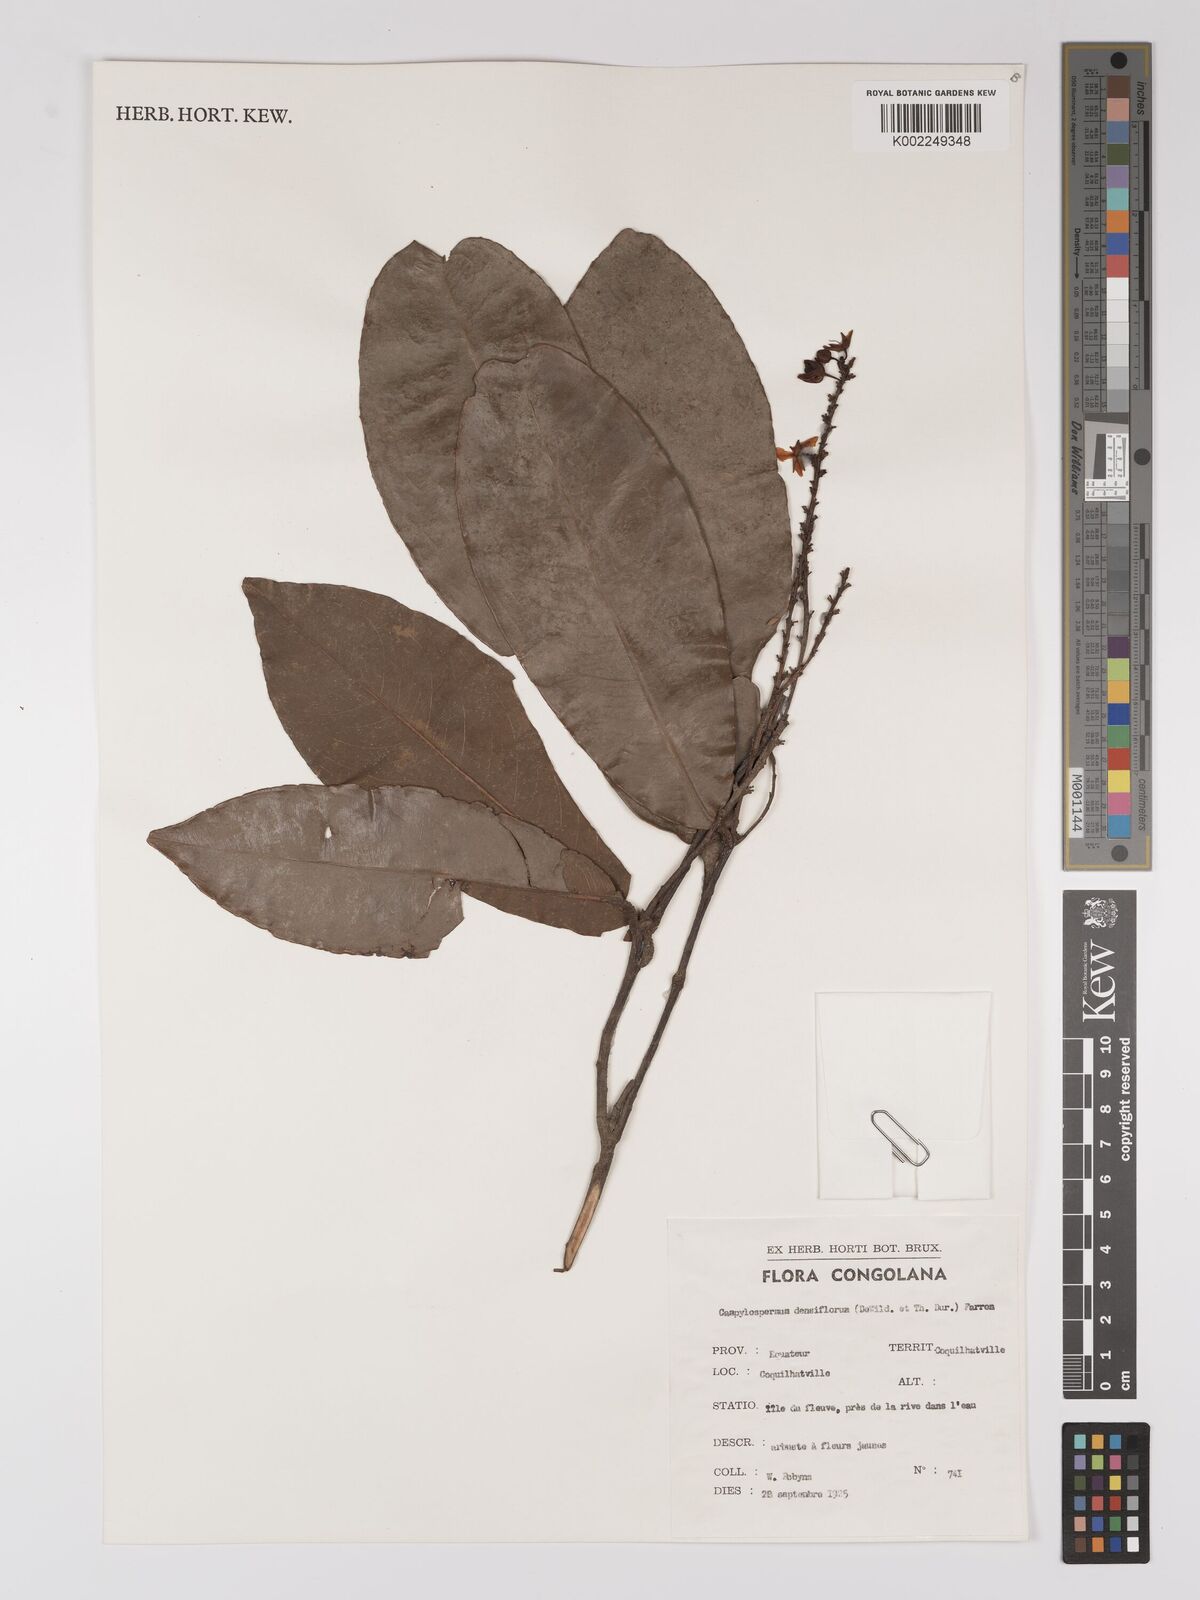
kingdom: Plantae
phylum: Tracheophyta
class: Magnoliopsida
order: Malpighiales
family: Ochnaceae
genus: Gomphia
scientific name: Gomphia densiflora
